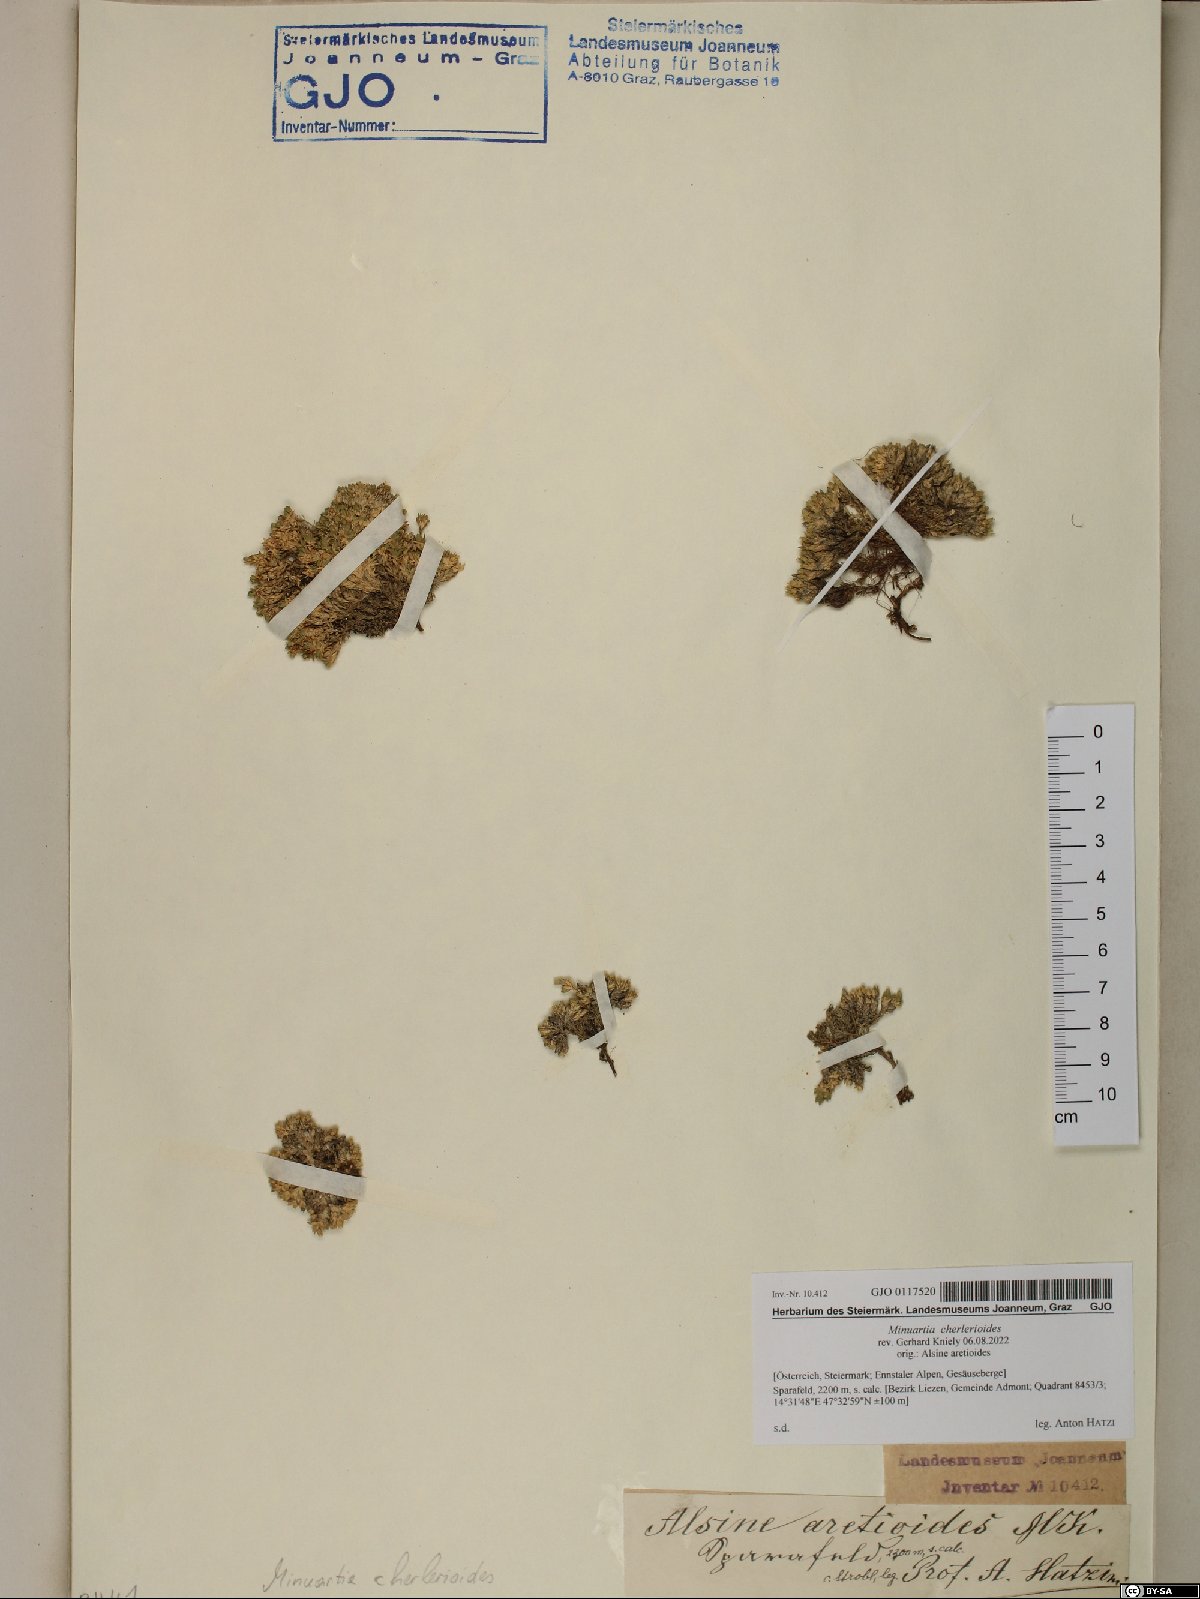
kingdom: Plantae
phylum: Tracheophyta
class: Magnoliopsida
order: Caryophyllales
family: Caryophyllaceae
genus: Facchinia
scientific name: Facchinia cherlerioides
